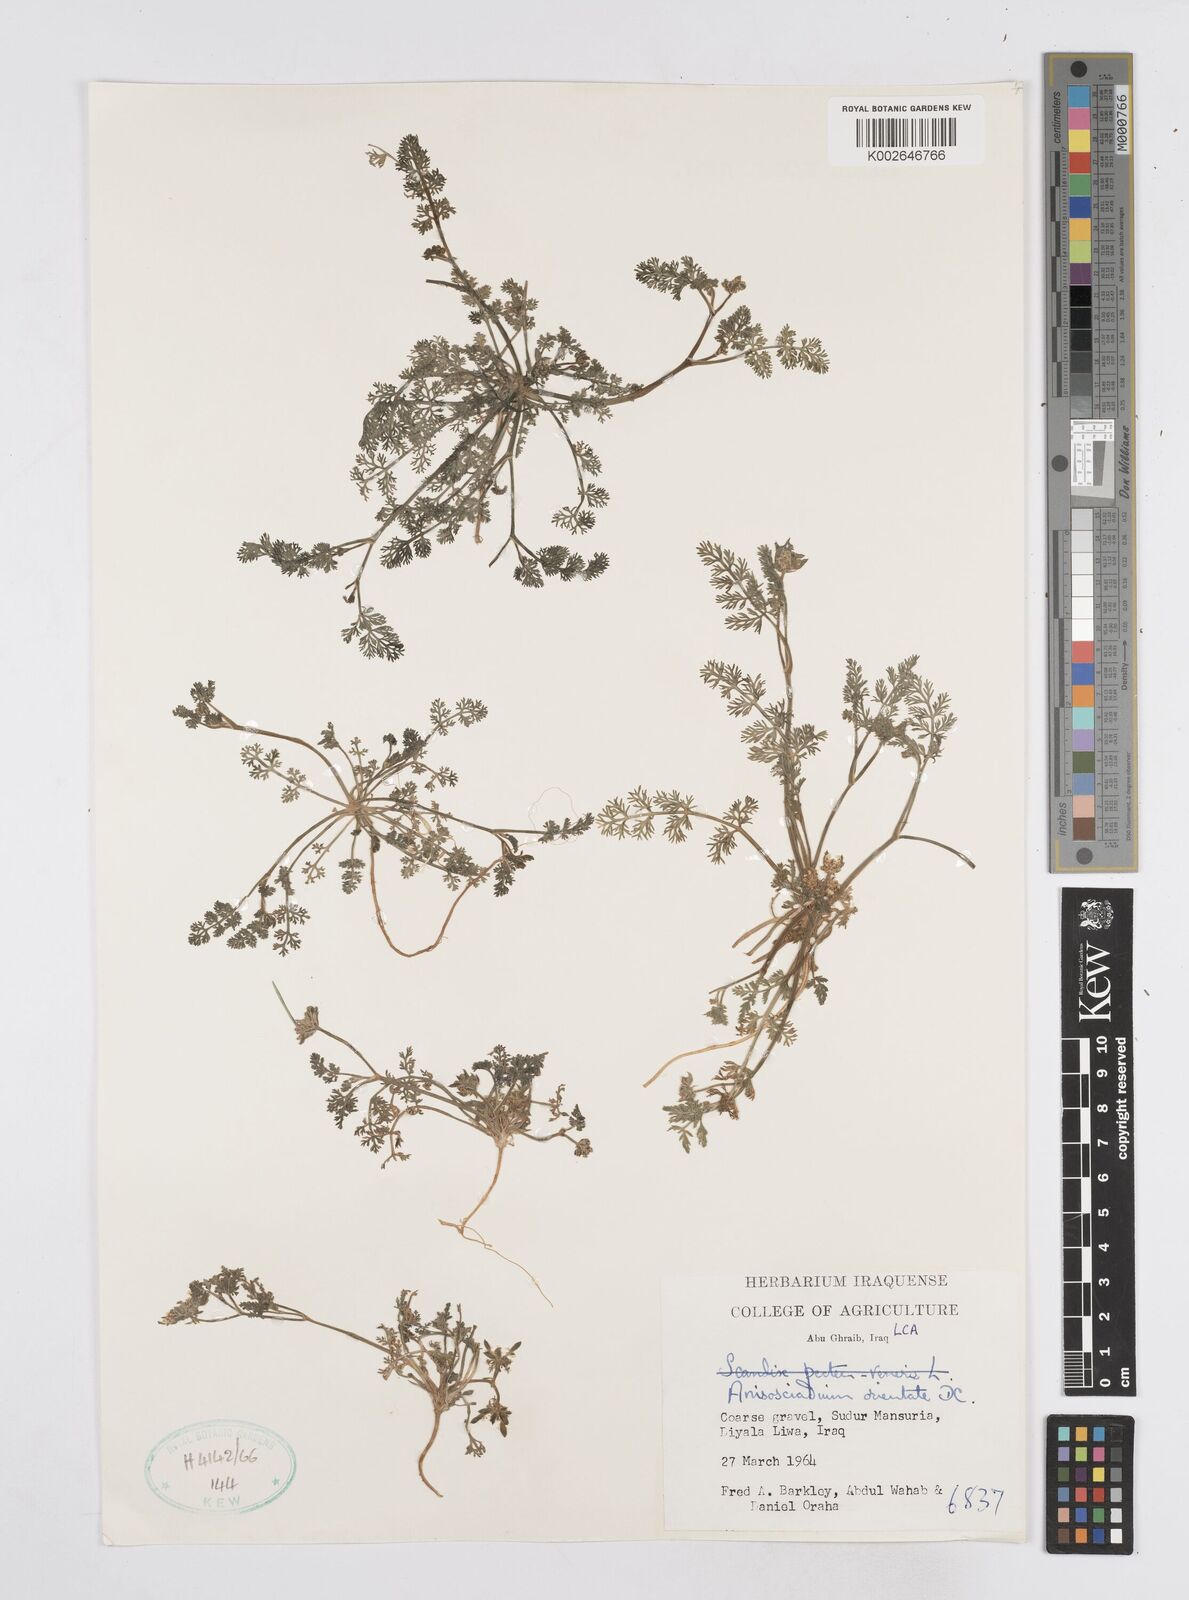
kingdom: Plantae
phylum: Tracheophyta
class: Magnoliopsida
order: Apiales
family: Apiaceae
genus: Anisosciadium
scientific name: Anisosciadium orientale
